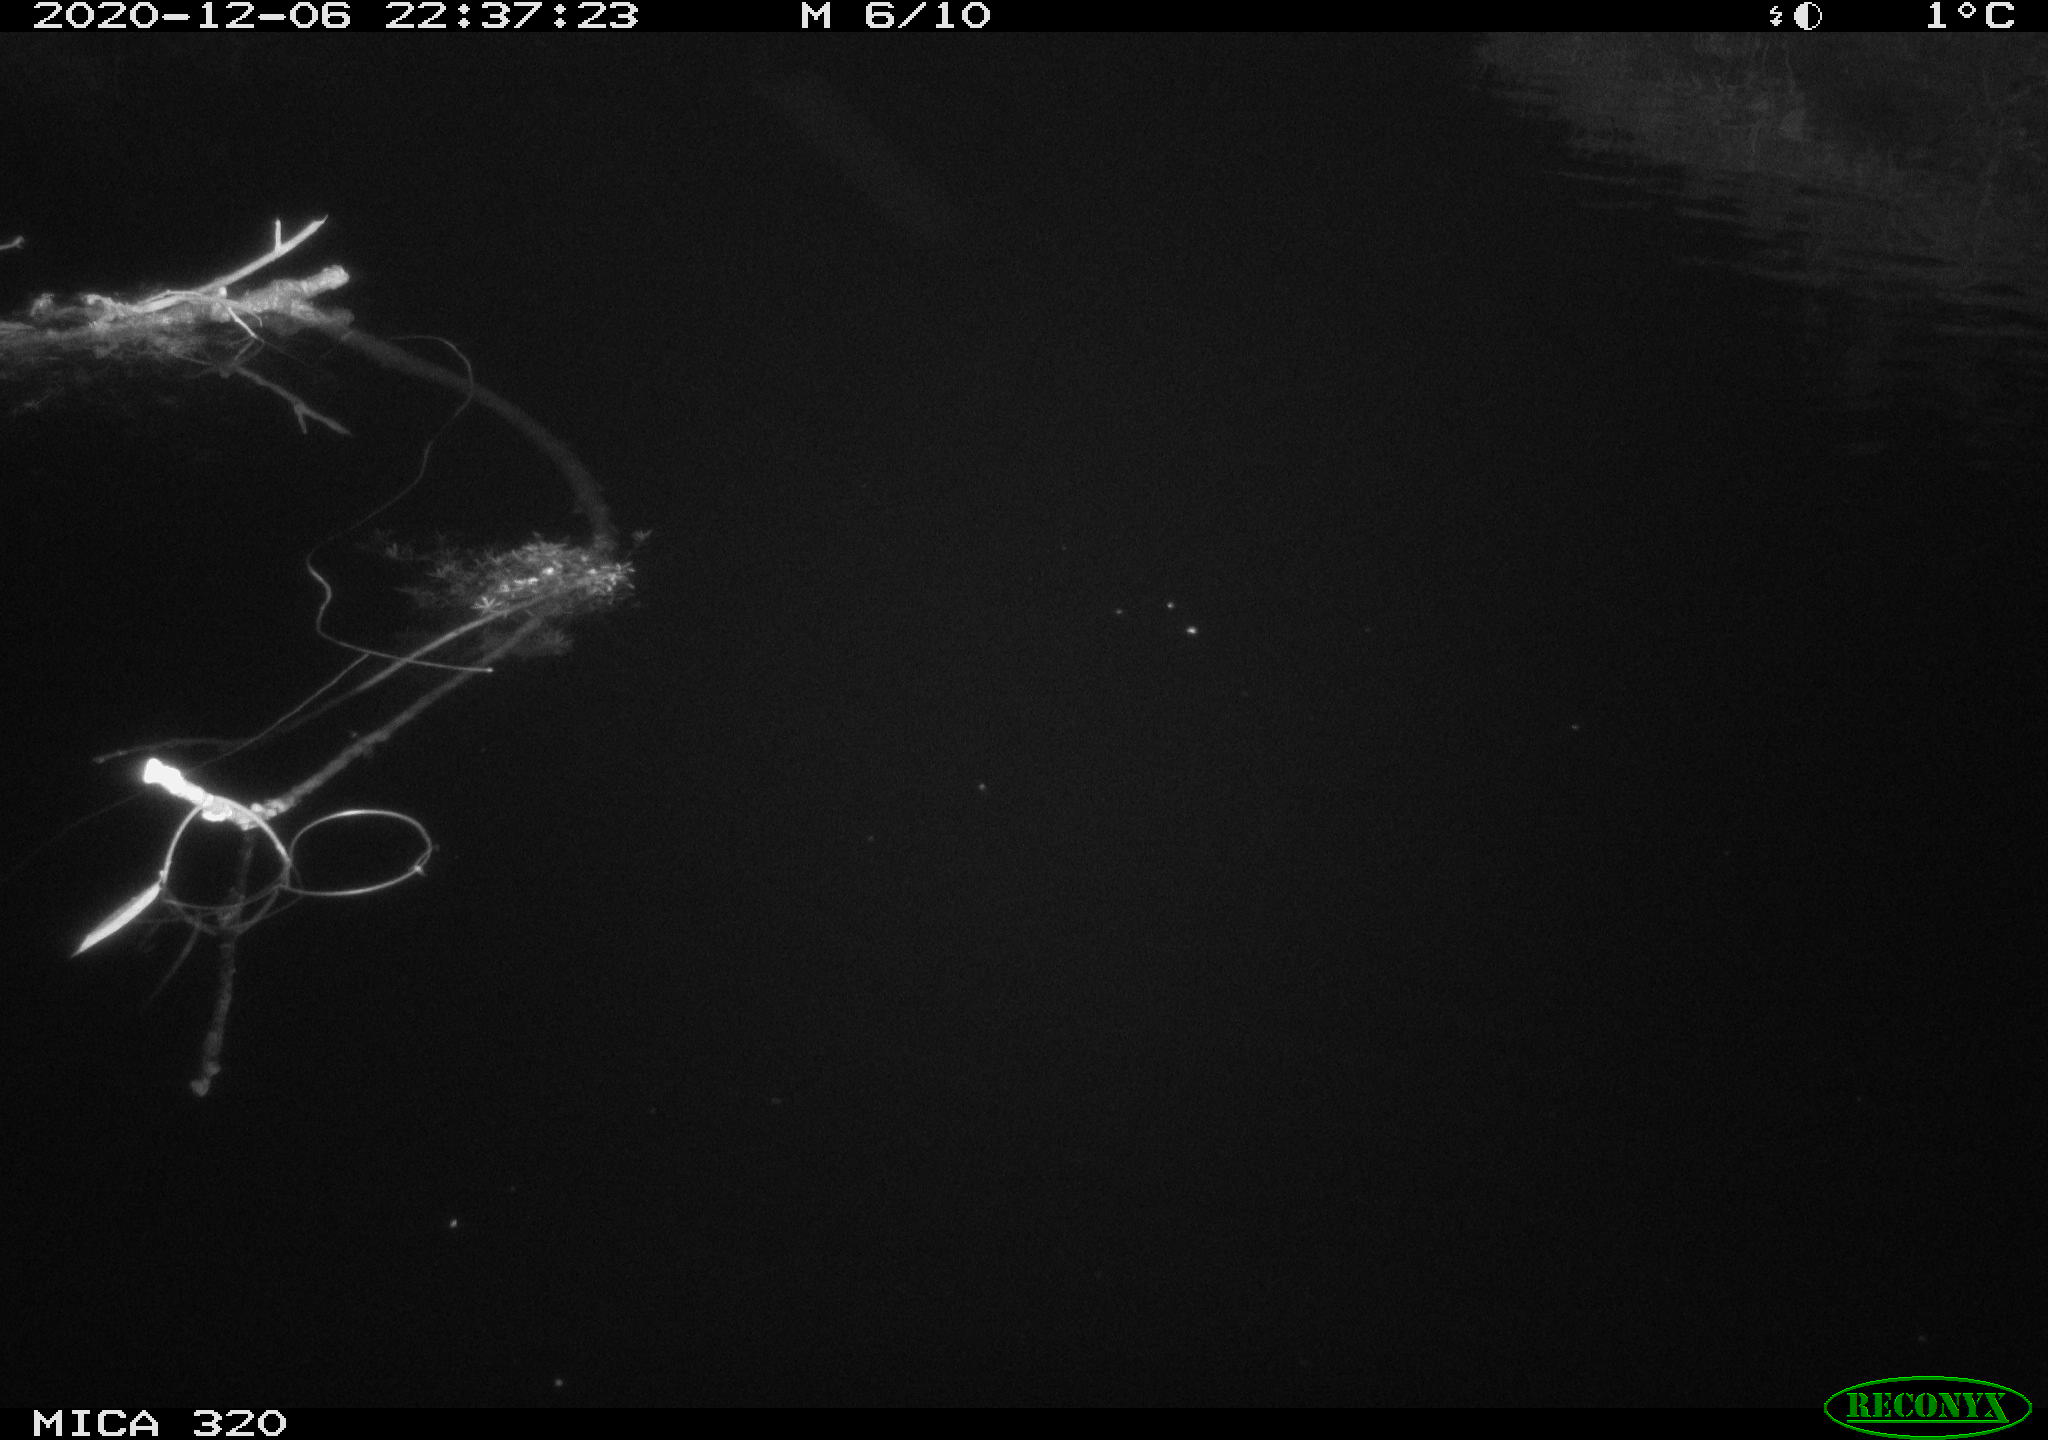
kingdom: Animalia
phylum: Chordata
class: Aves
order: Anseriformes
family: Anatidae
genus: Mareca
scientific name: Mareca strepera
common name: Gadwall
